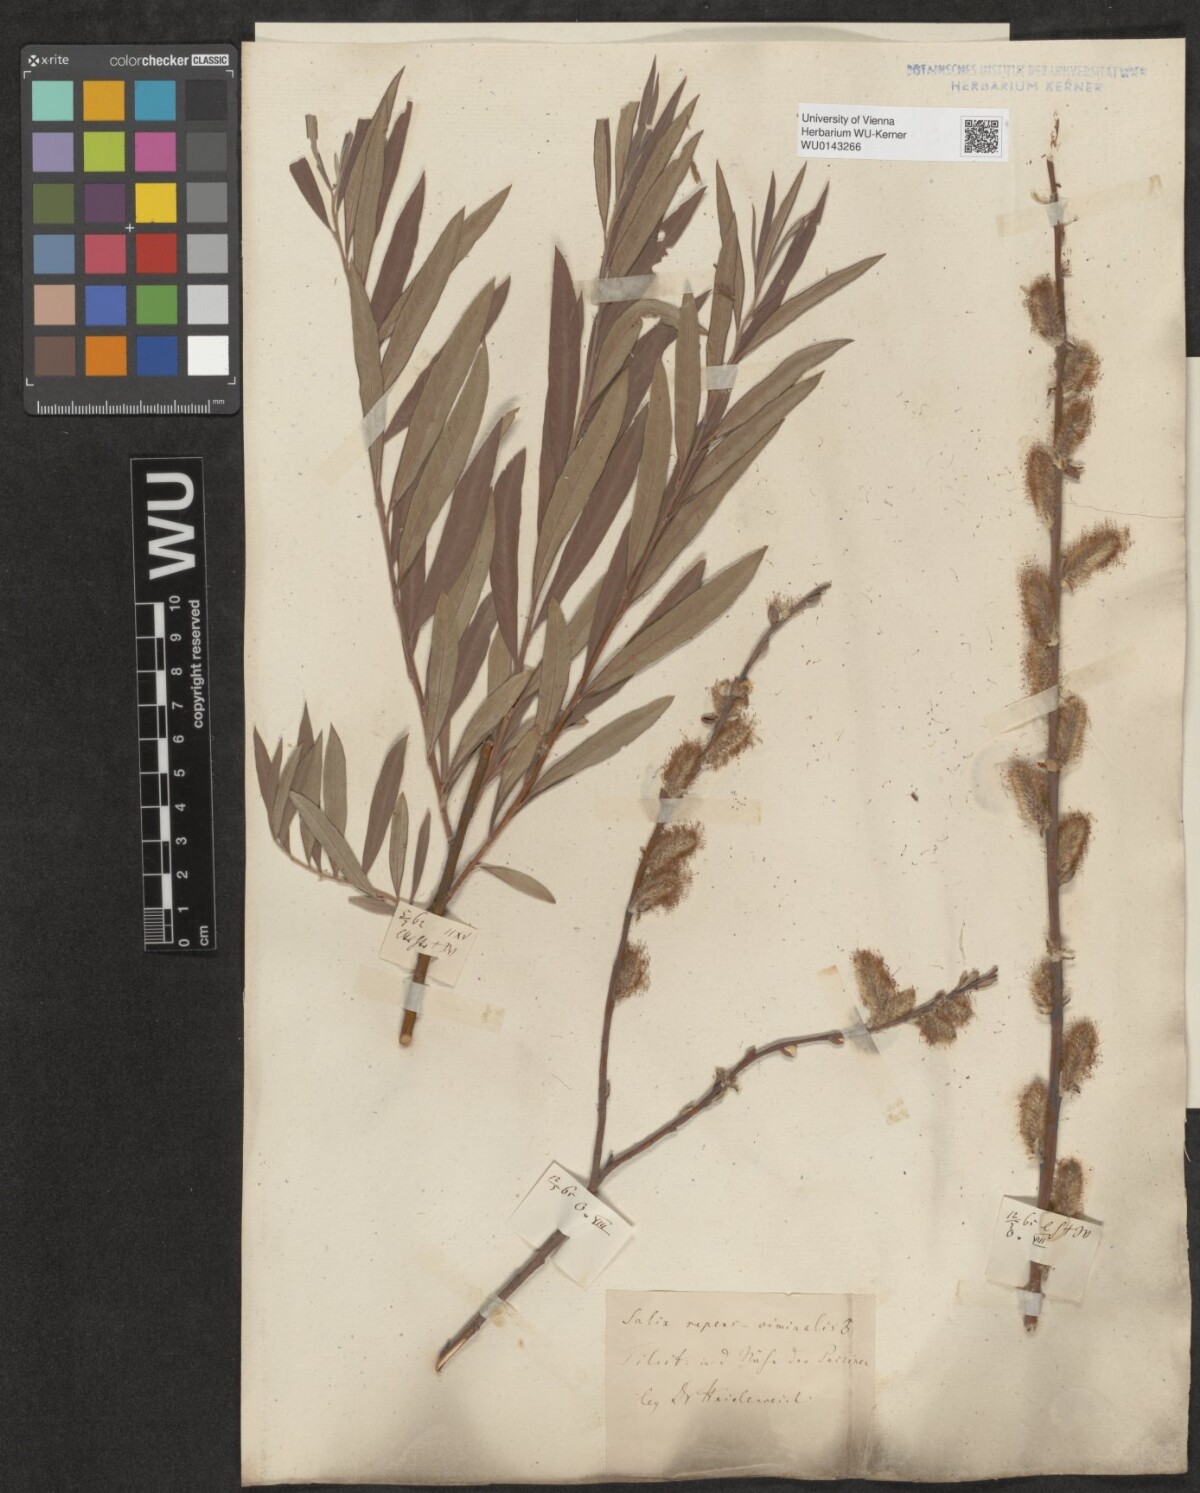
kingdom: Plantae
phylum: Tracheophyta
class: Magnoliopsida
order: Malpighiales
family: Salicaceae
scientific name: Salicaceae
